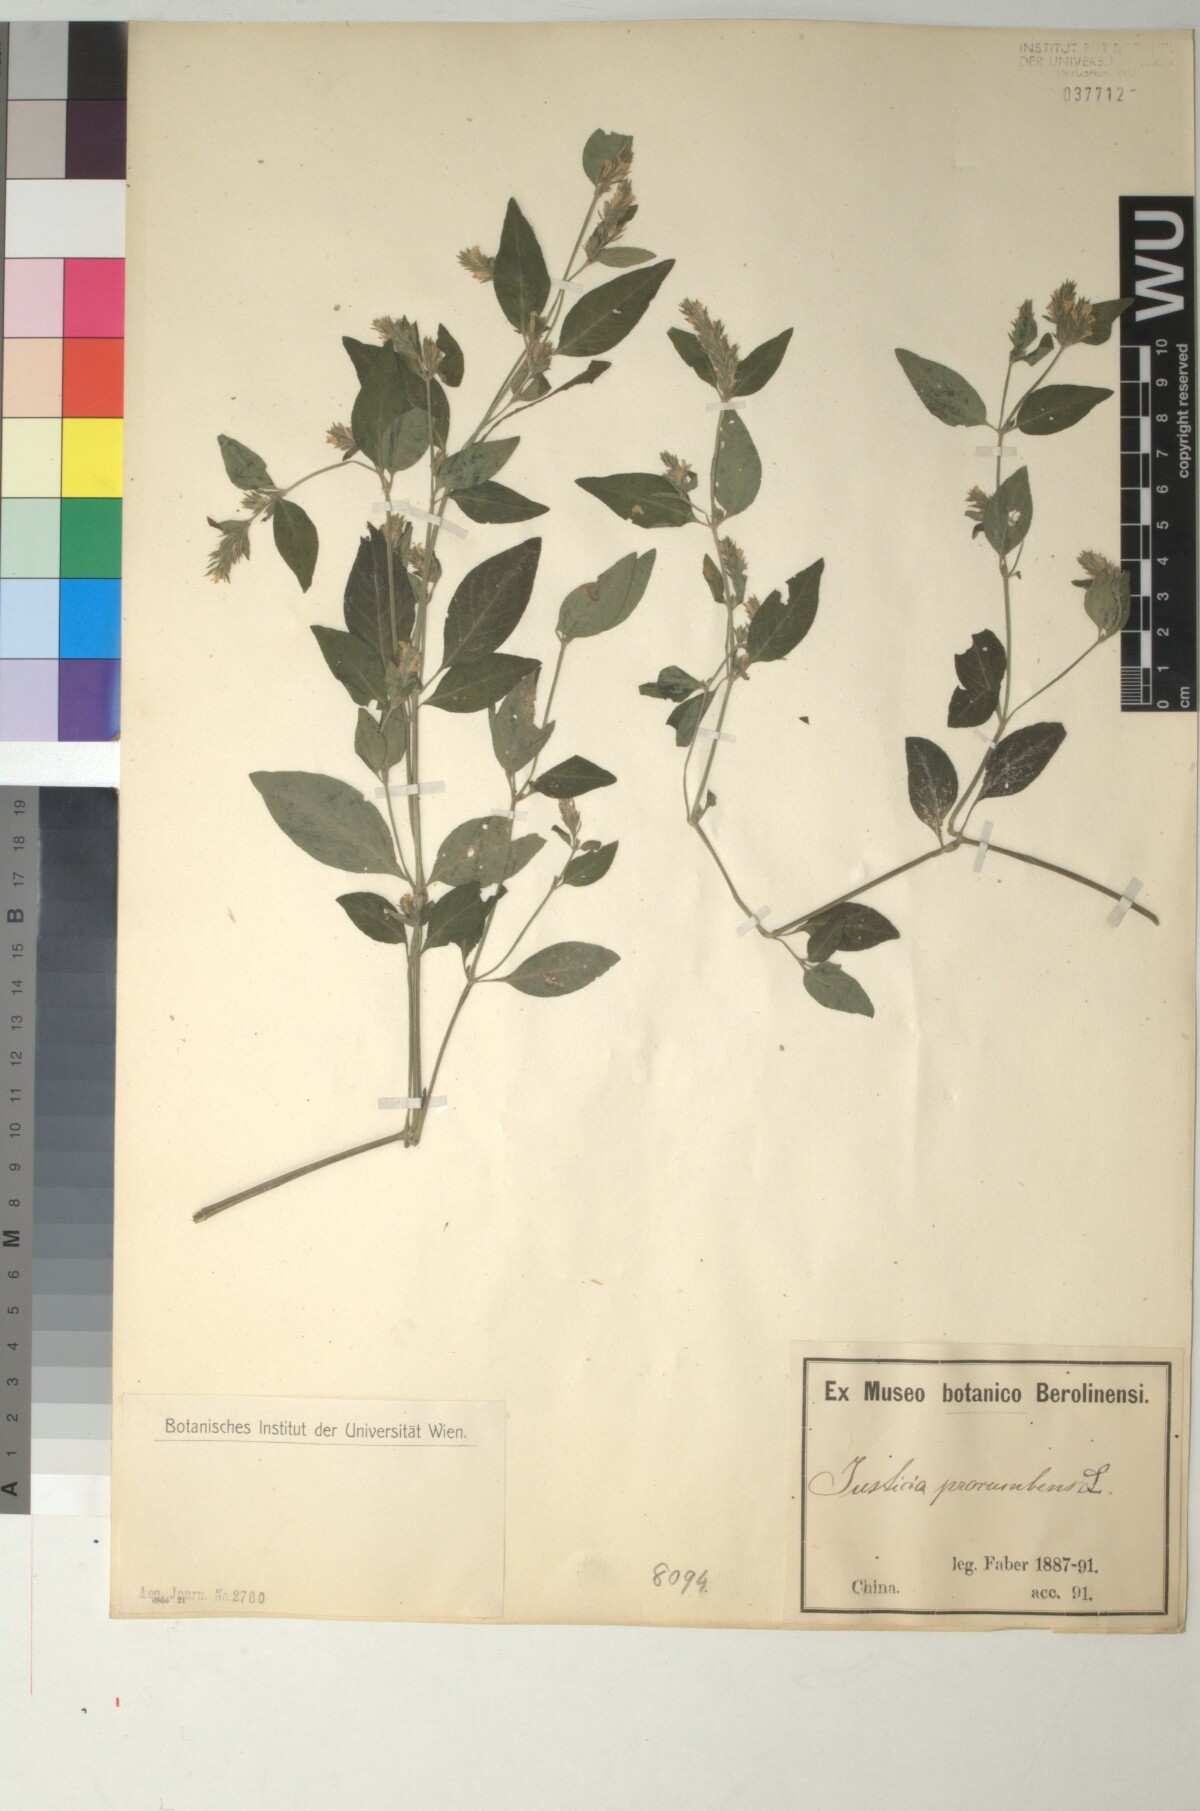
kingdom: Plantae
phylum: Tracheophyta
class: Magnoliopsida
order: Lamiales
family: Acanthaceae
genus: Rostellularia
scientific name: Rostellularia procumbens
